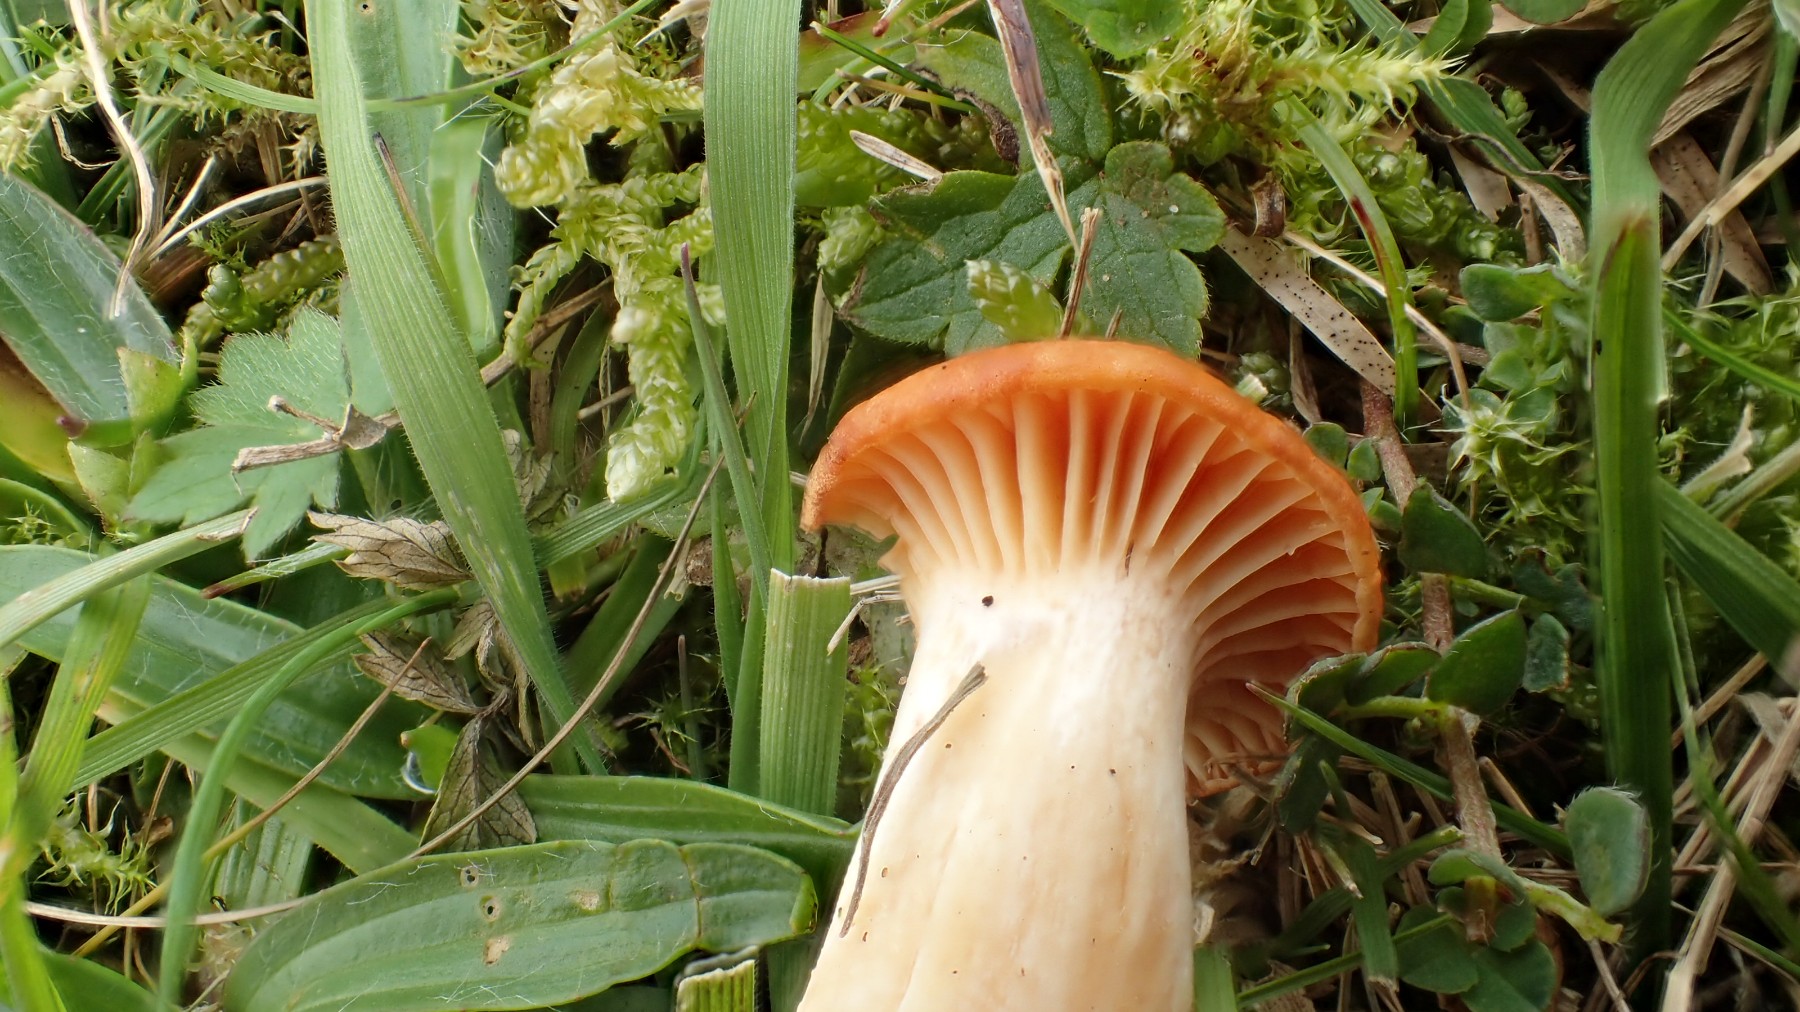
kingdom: Fungi
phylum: Basidiomycota
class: Agaricomycetes
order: Agaricales
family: Hygrophoraceae
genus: Cuphophyllus
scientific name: Cuphophyllus pratensis
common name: eng-vokshat
